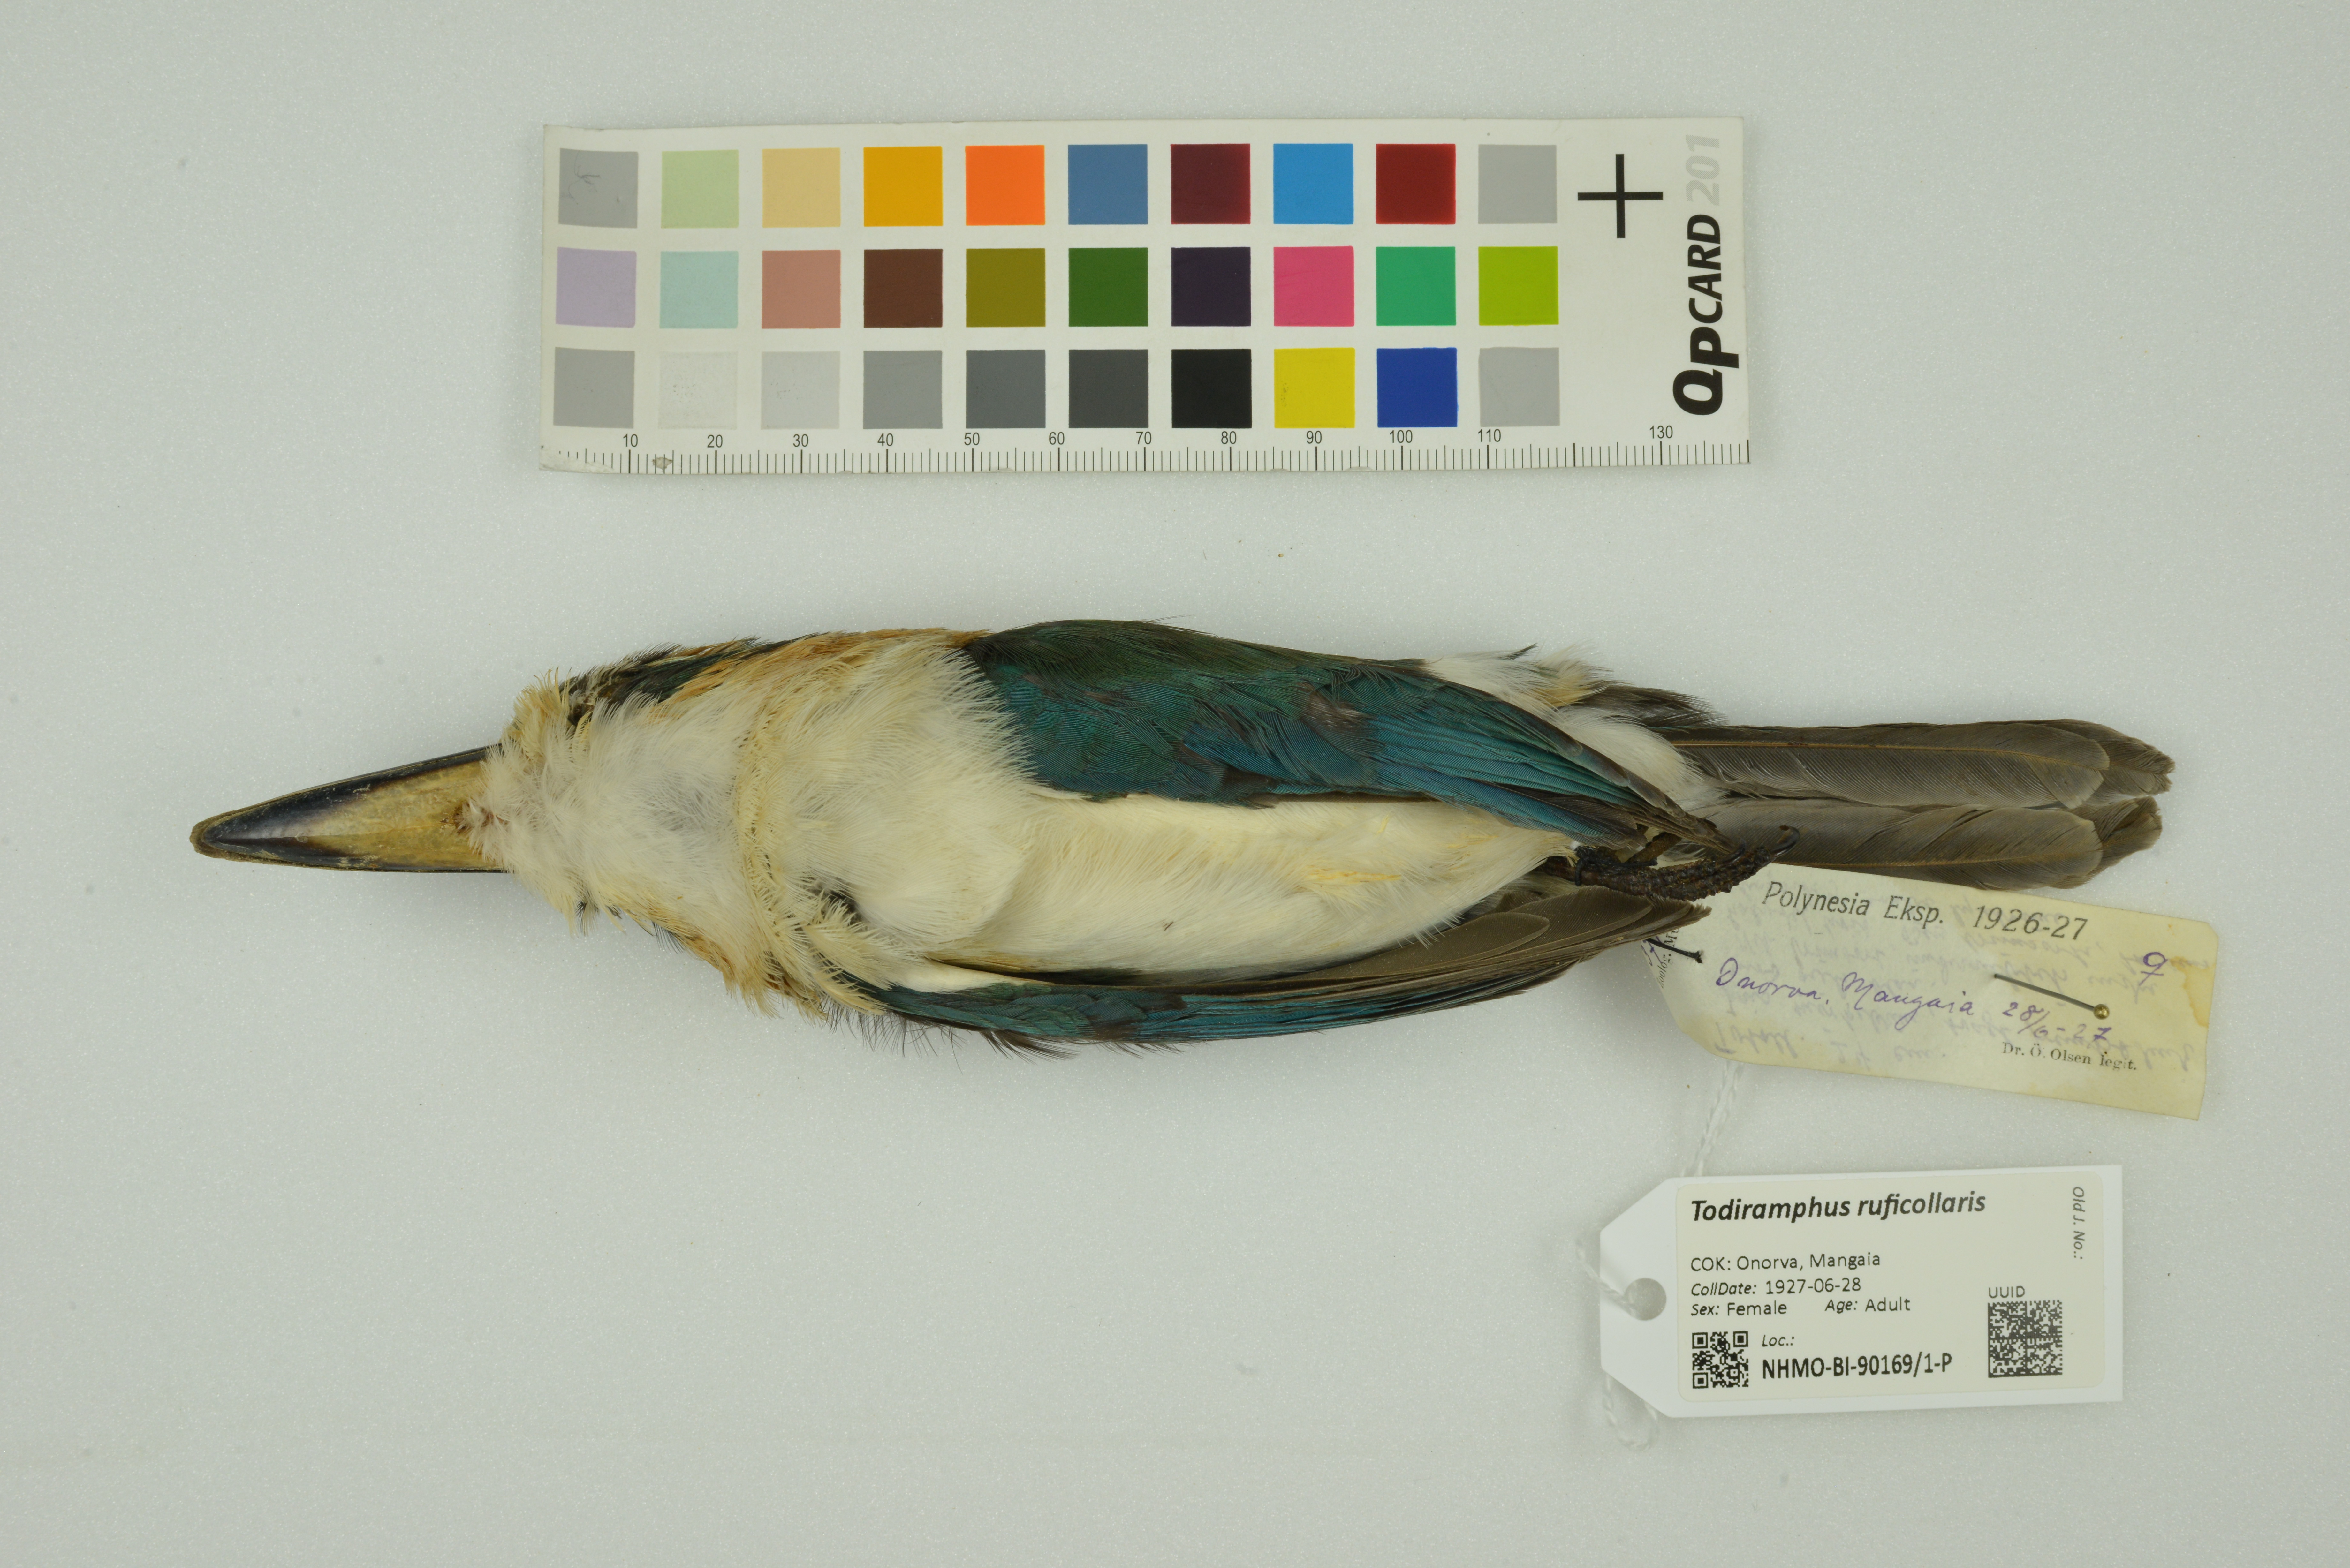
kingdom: Animalia
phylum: Chordata
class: Aves
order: Coraciiformes
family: Alcedinidae
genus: Todiramphus
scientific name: Todiramphus ruficollaris
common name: Mewing kingfisher
